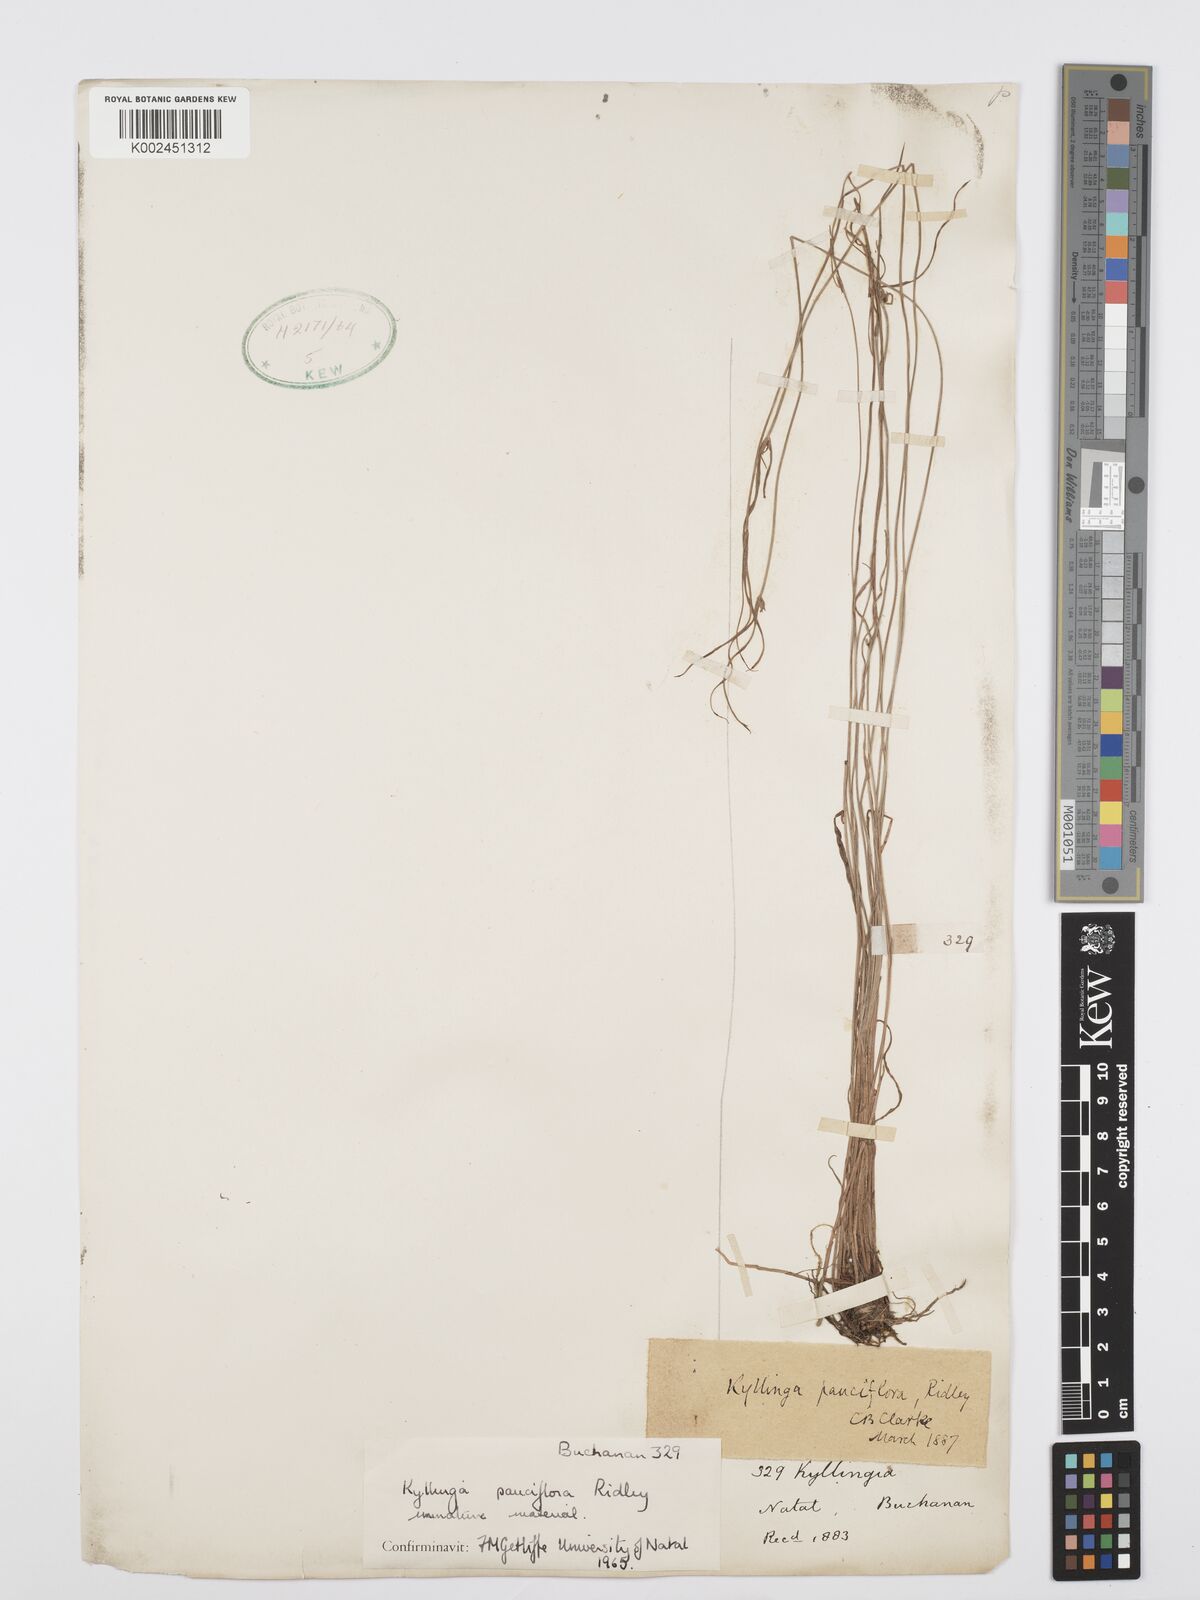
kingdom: Plantae
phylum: Tracheophyta
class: Liliopsida
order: Poales
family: Cyperaceae
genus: Cyperus
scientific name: Cyperus
